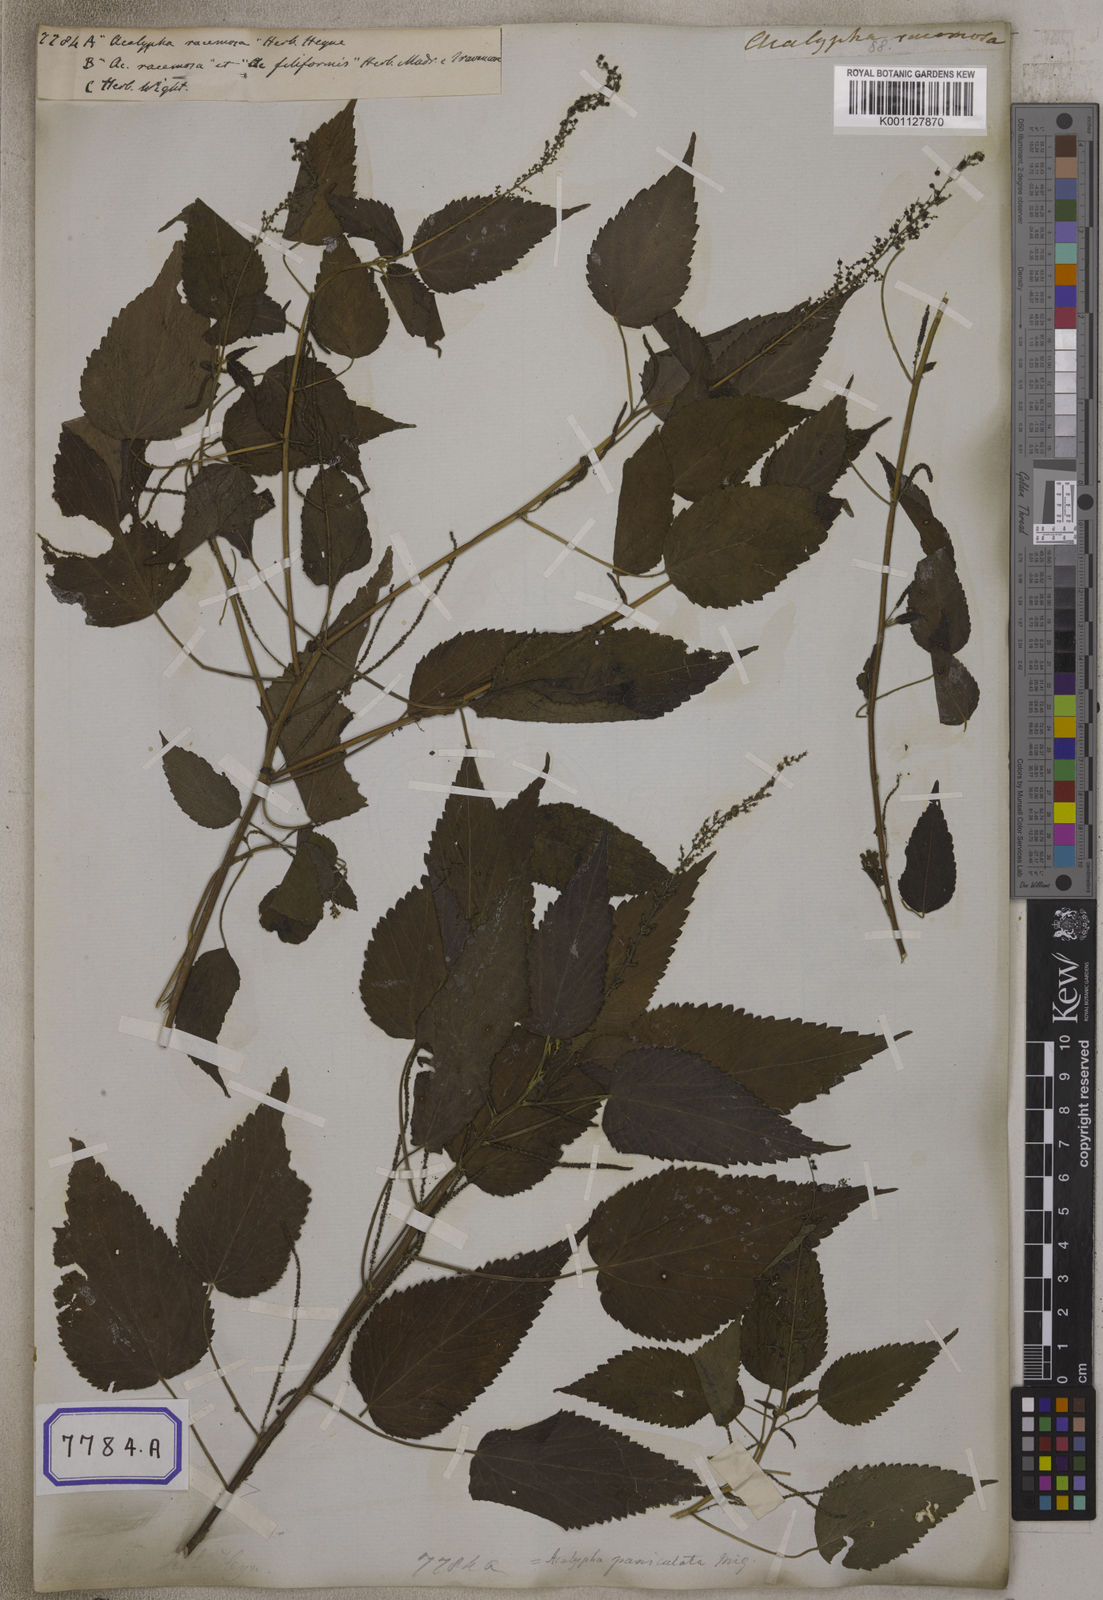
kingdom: Plantae
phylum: Tracheophyta
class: Magnoliopsida
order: Malpighiales
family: Euphorbiaceae
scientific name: Euphorbiaceae
